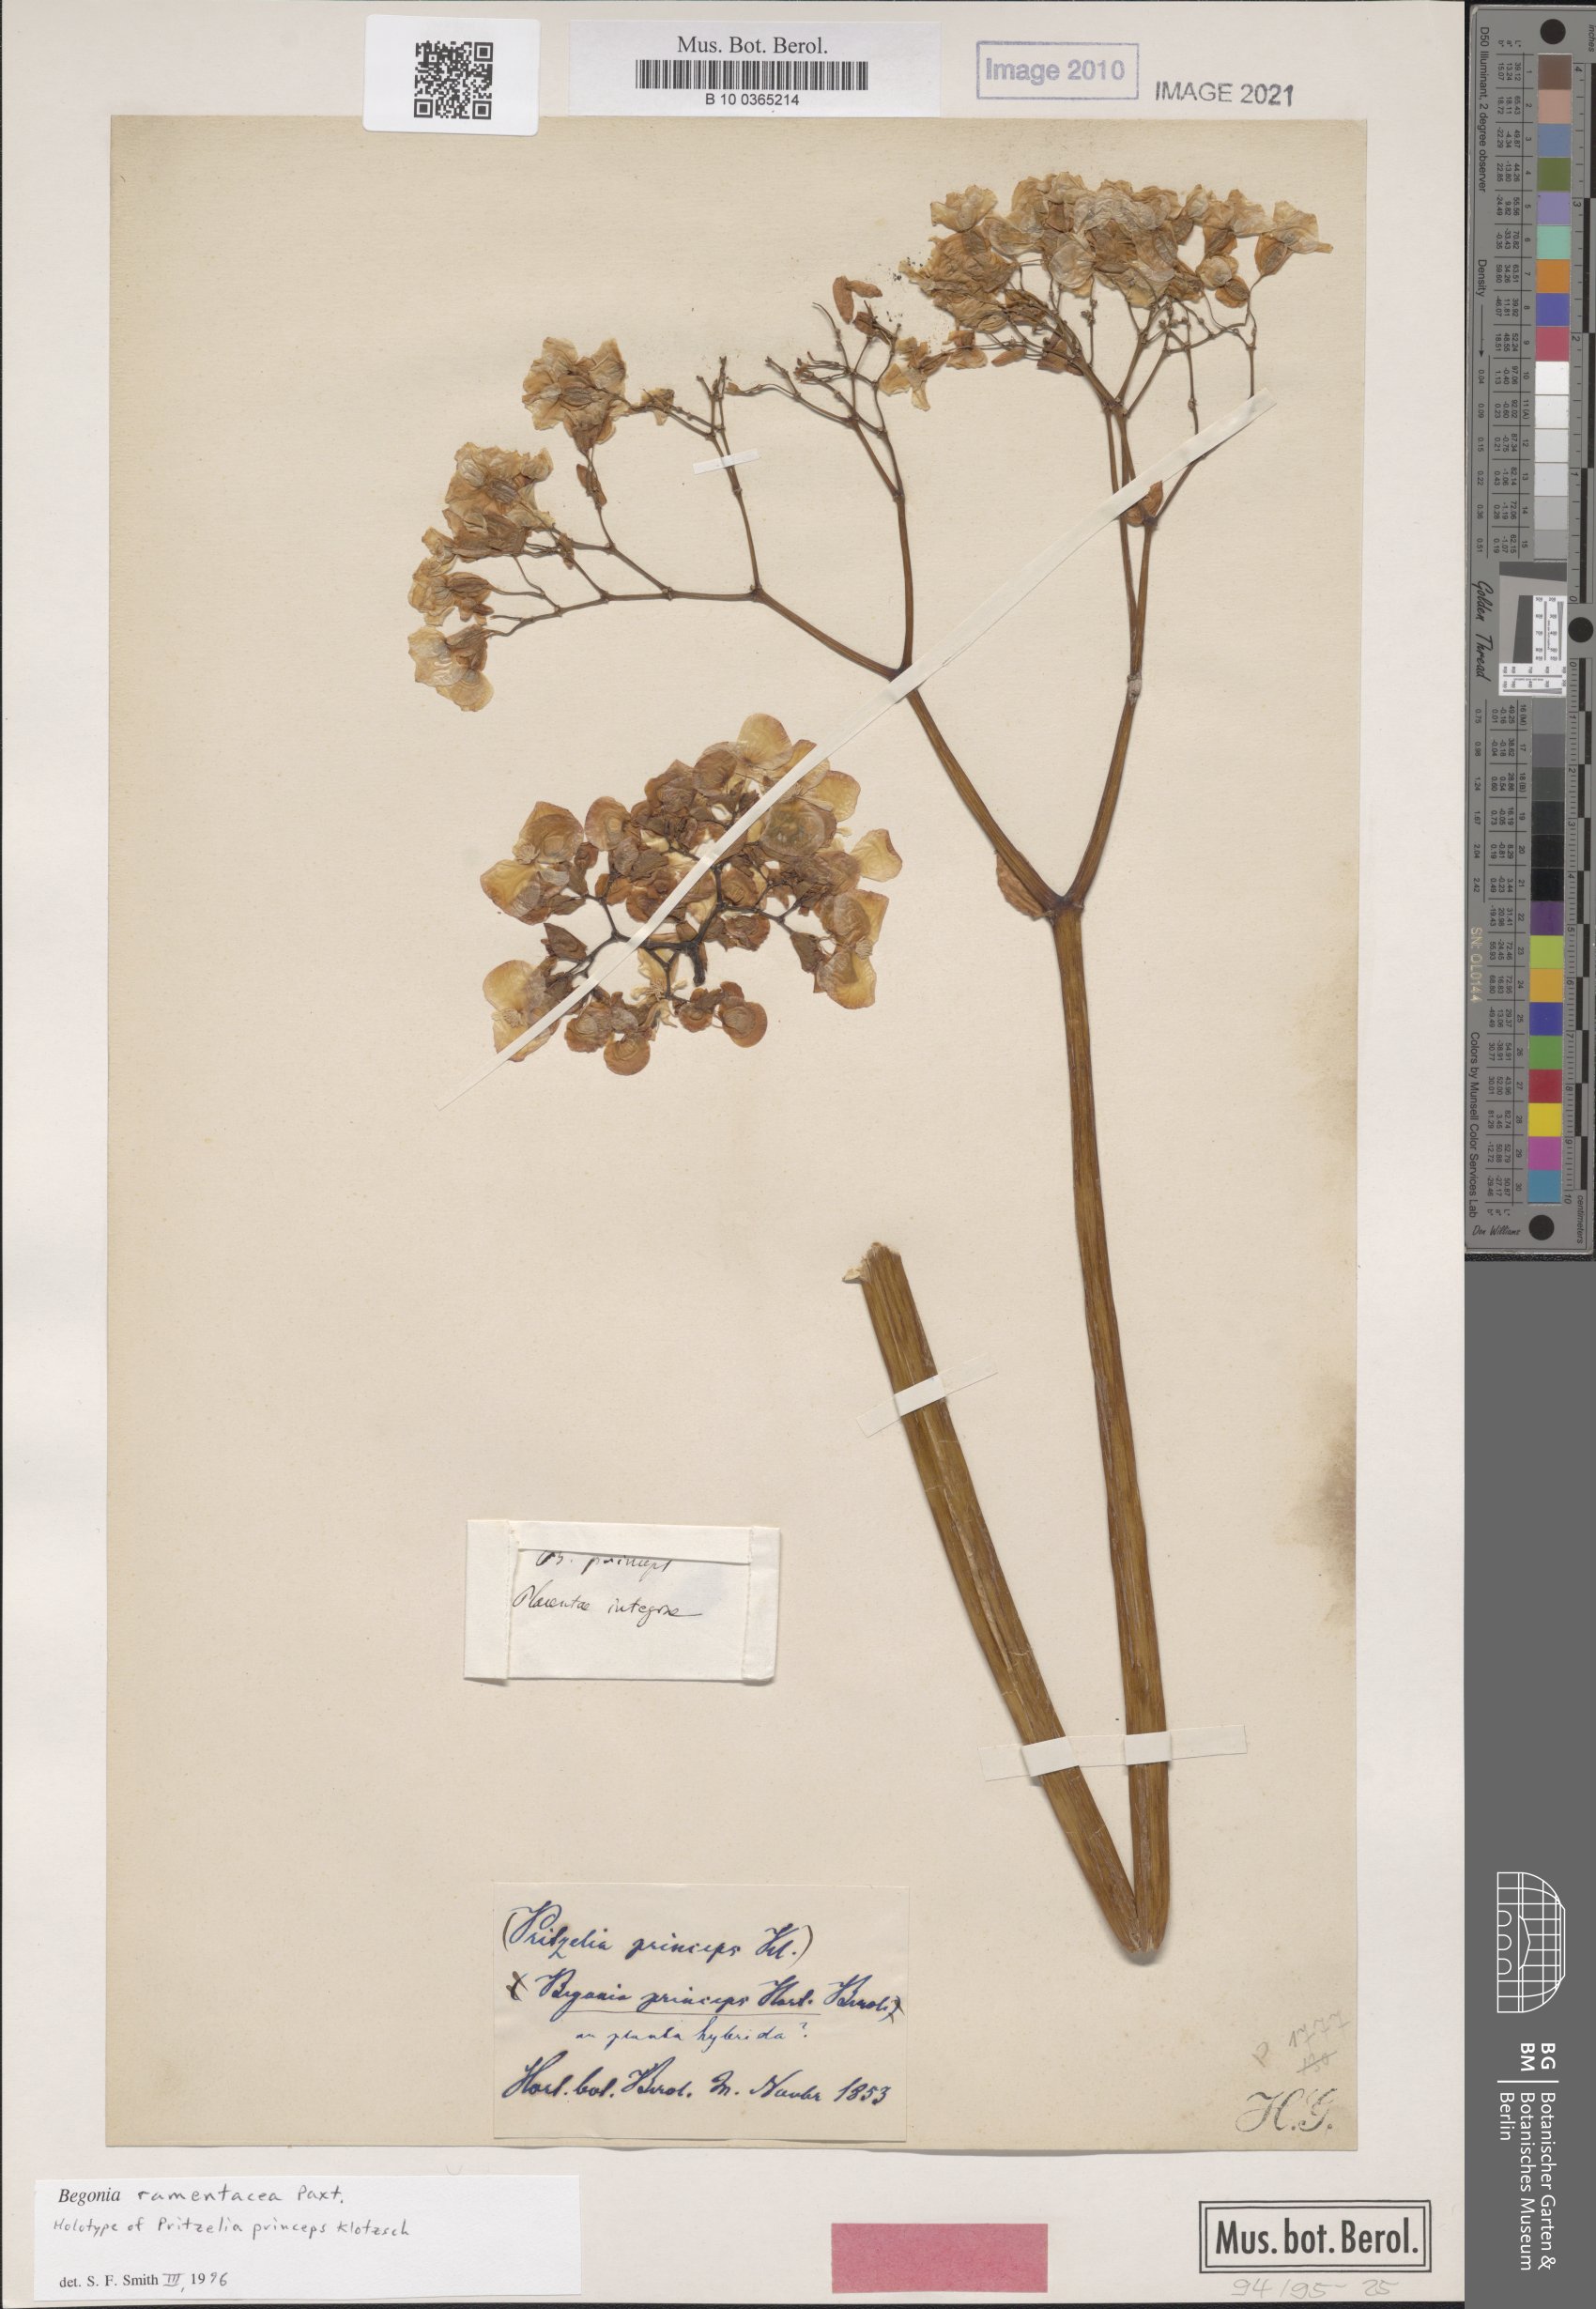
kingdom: Plantae
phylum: Tracheophyta
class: Magnoliopsida
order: Cucurbitales
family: Begoniaceae
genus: Begonia
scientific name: Begonia ramentacea
